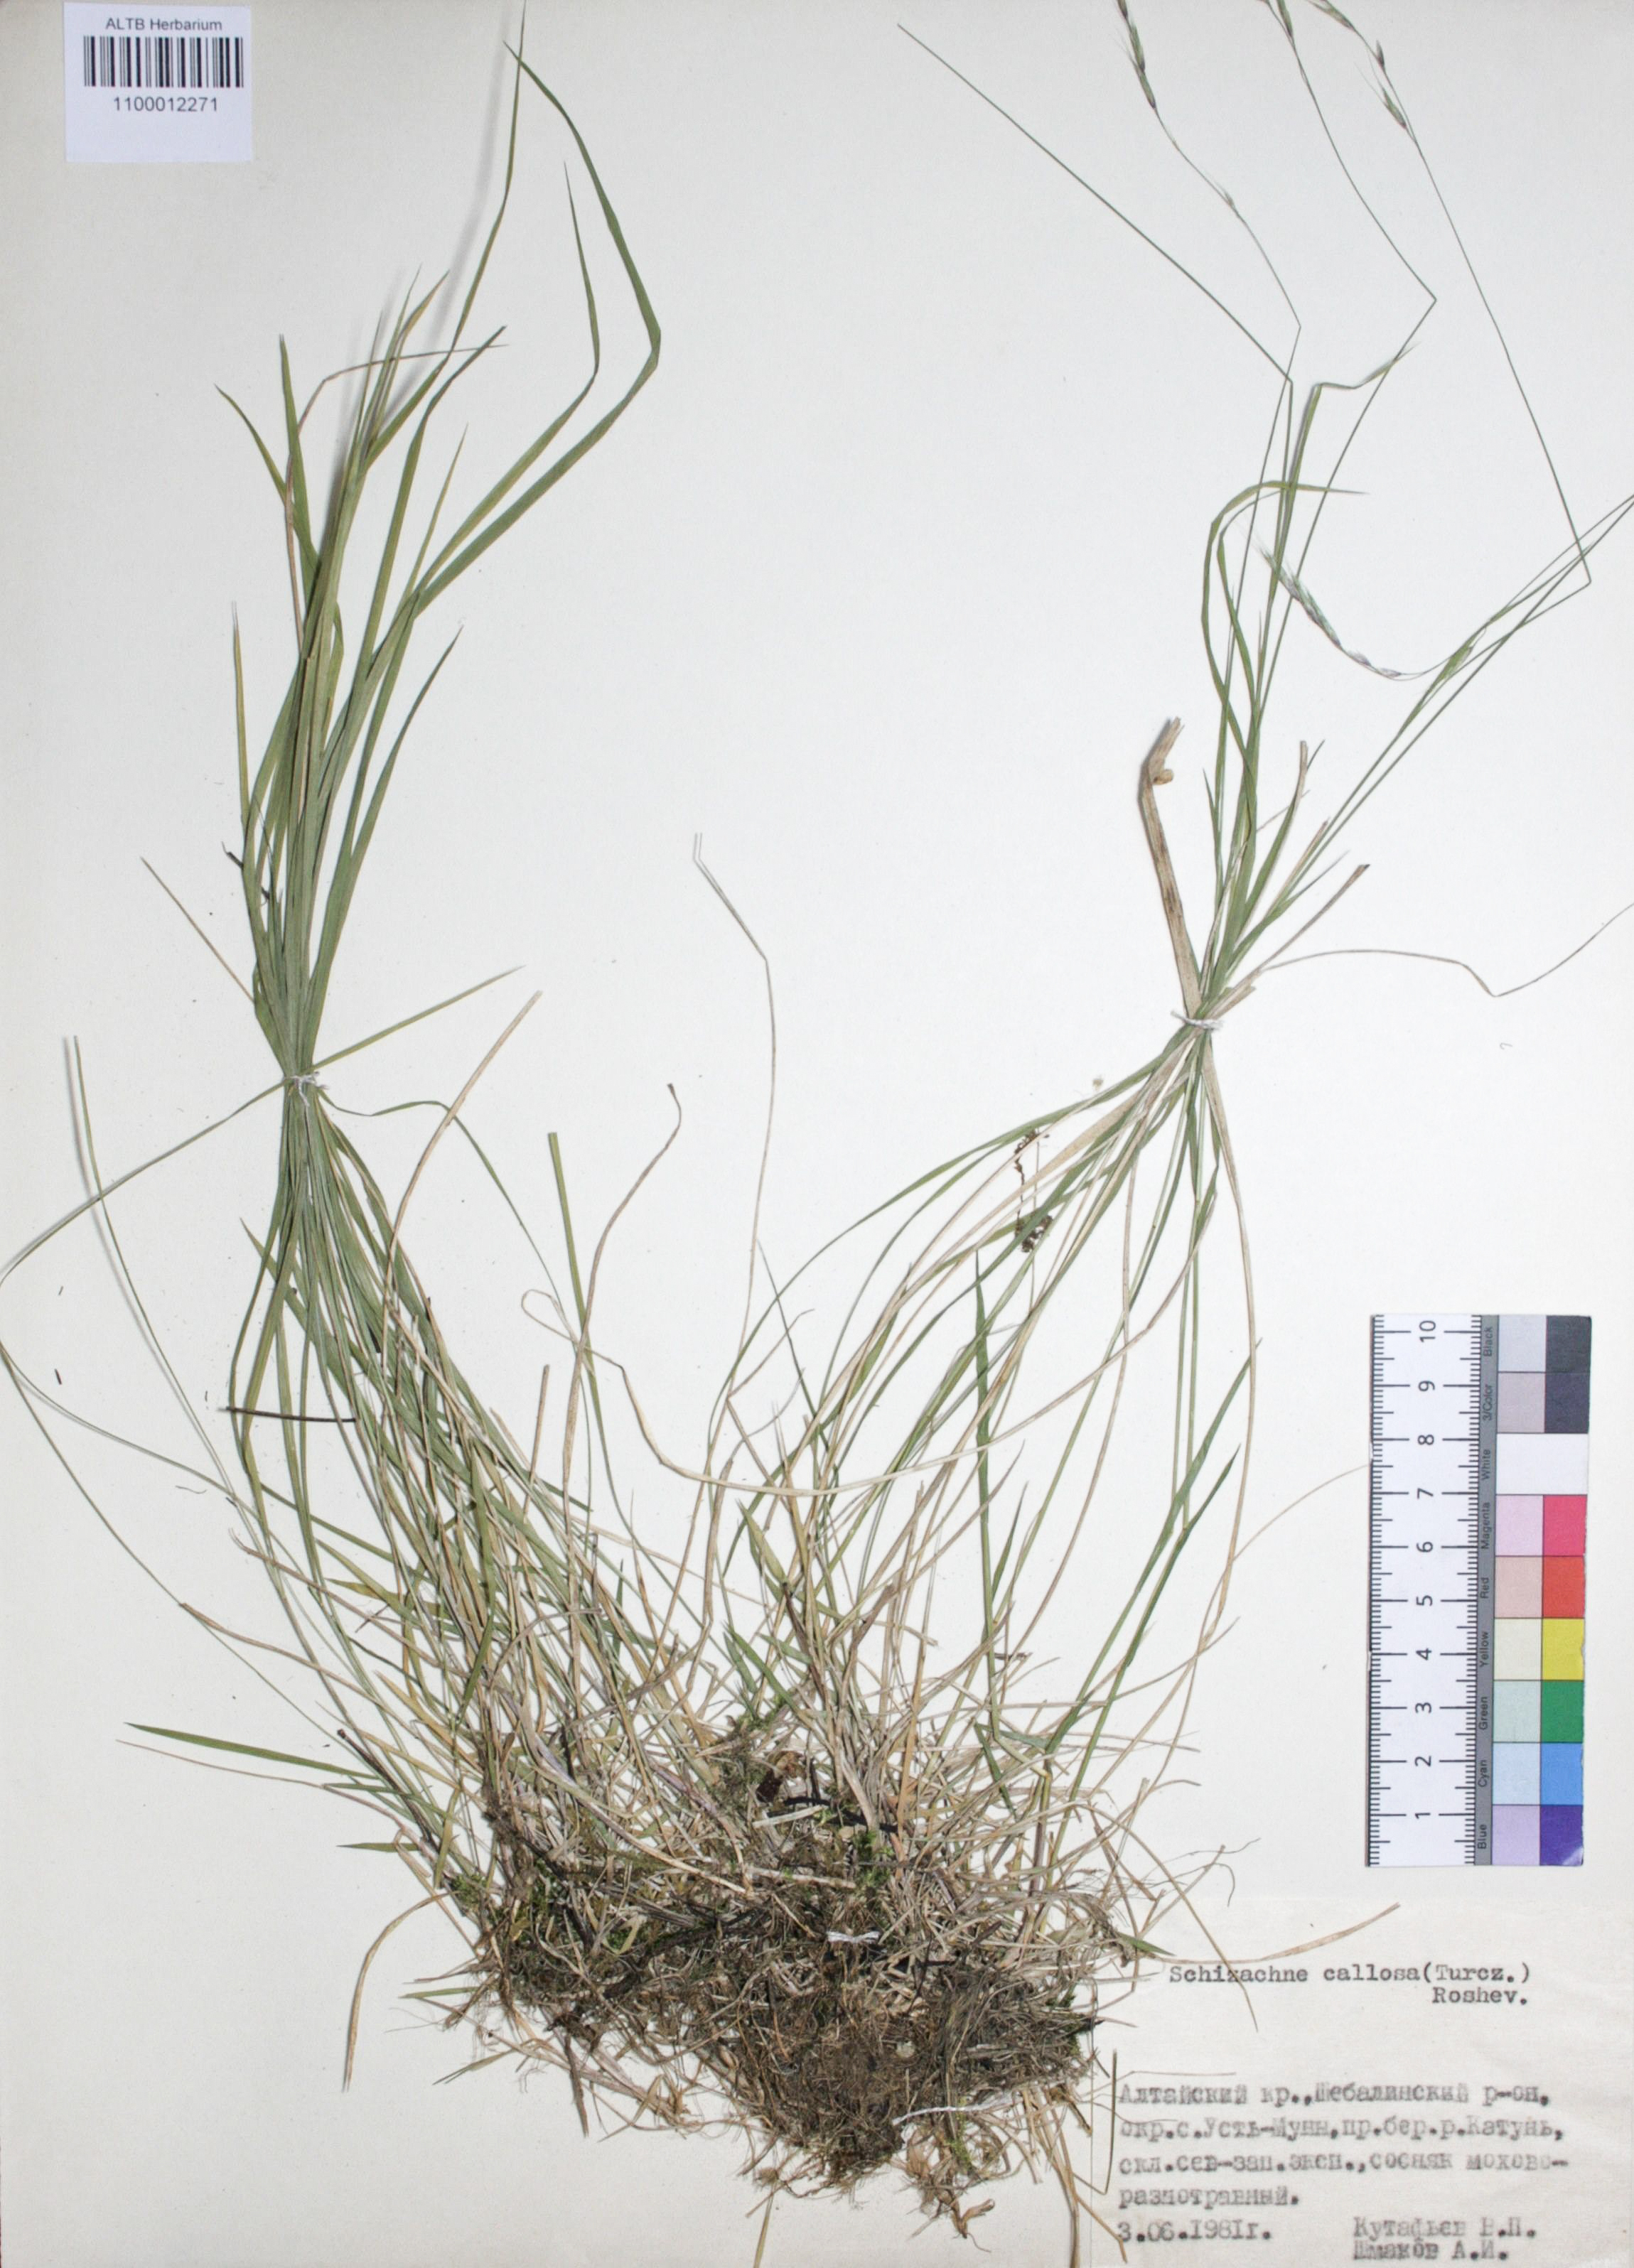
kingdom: Plantae
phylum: Tracheophyta
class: Liliopsida
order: Poales
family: Poaceae
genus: Schizachne
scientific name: Schizachne purpurascens
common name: False melic
